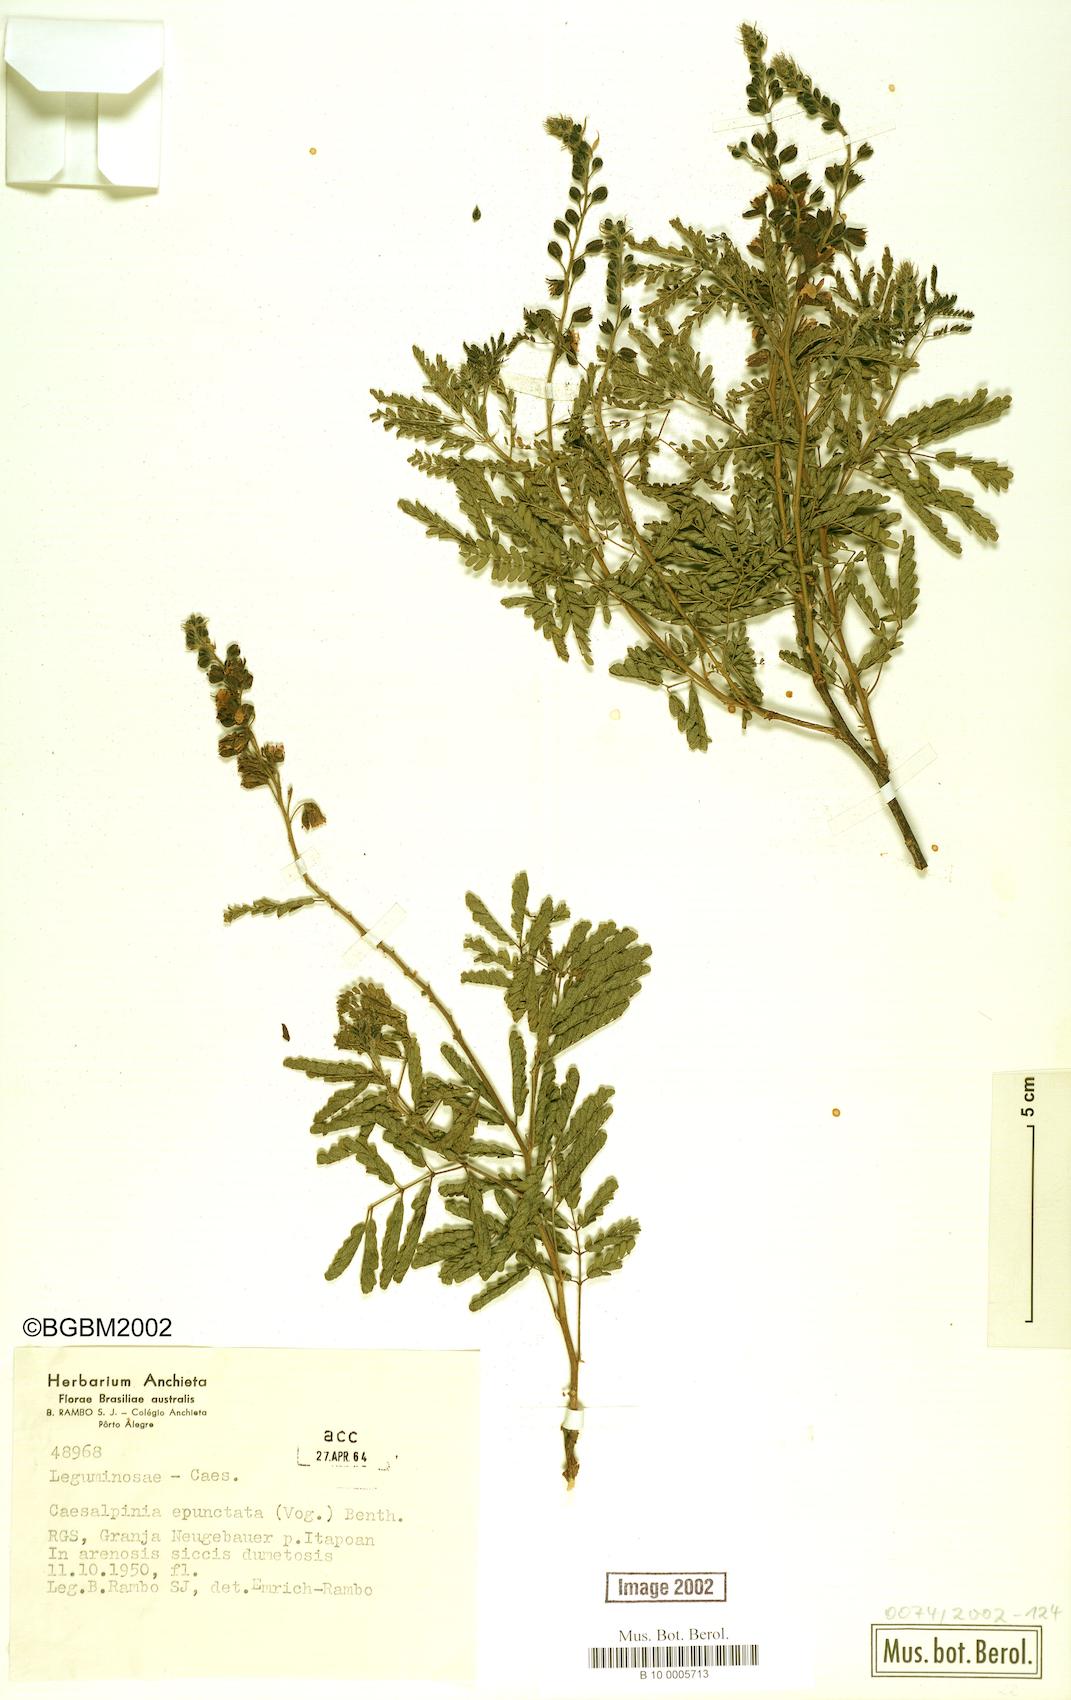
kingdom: Plantae
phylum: Tracheophyta
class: Magnoliopsida
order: Fabales
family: Fabaceae
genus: Pomaria
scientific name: Pomaria pilosa
